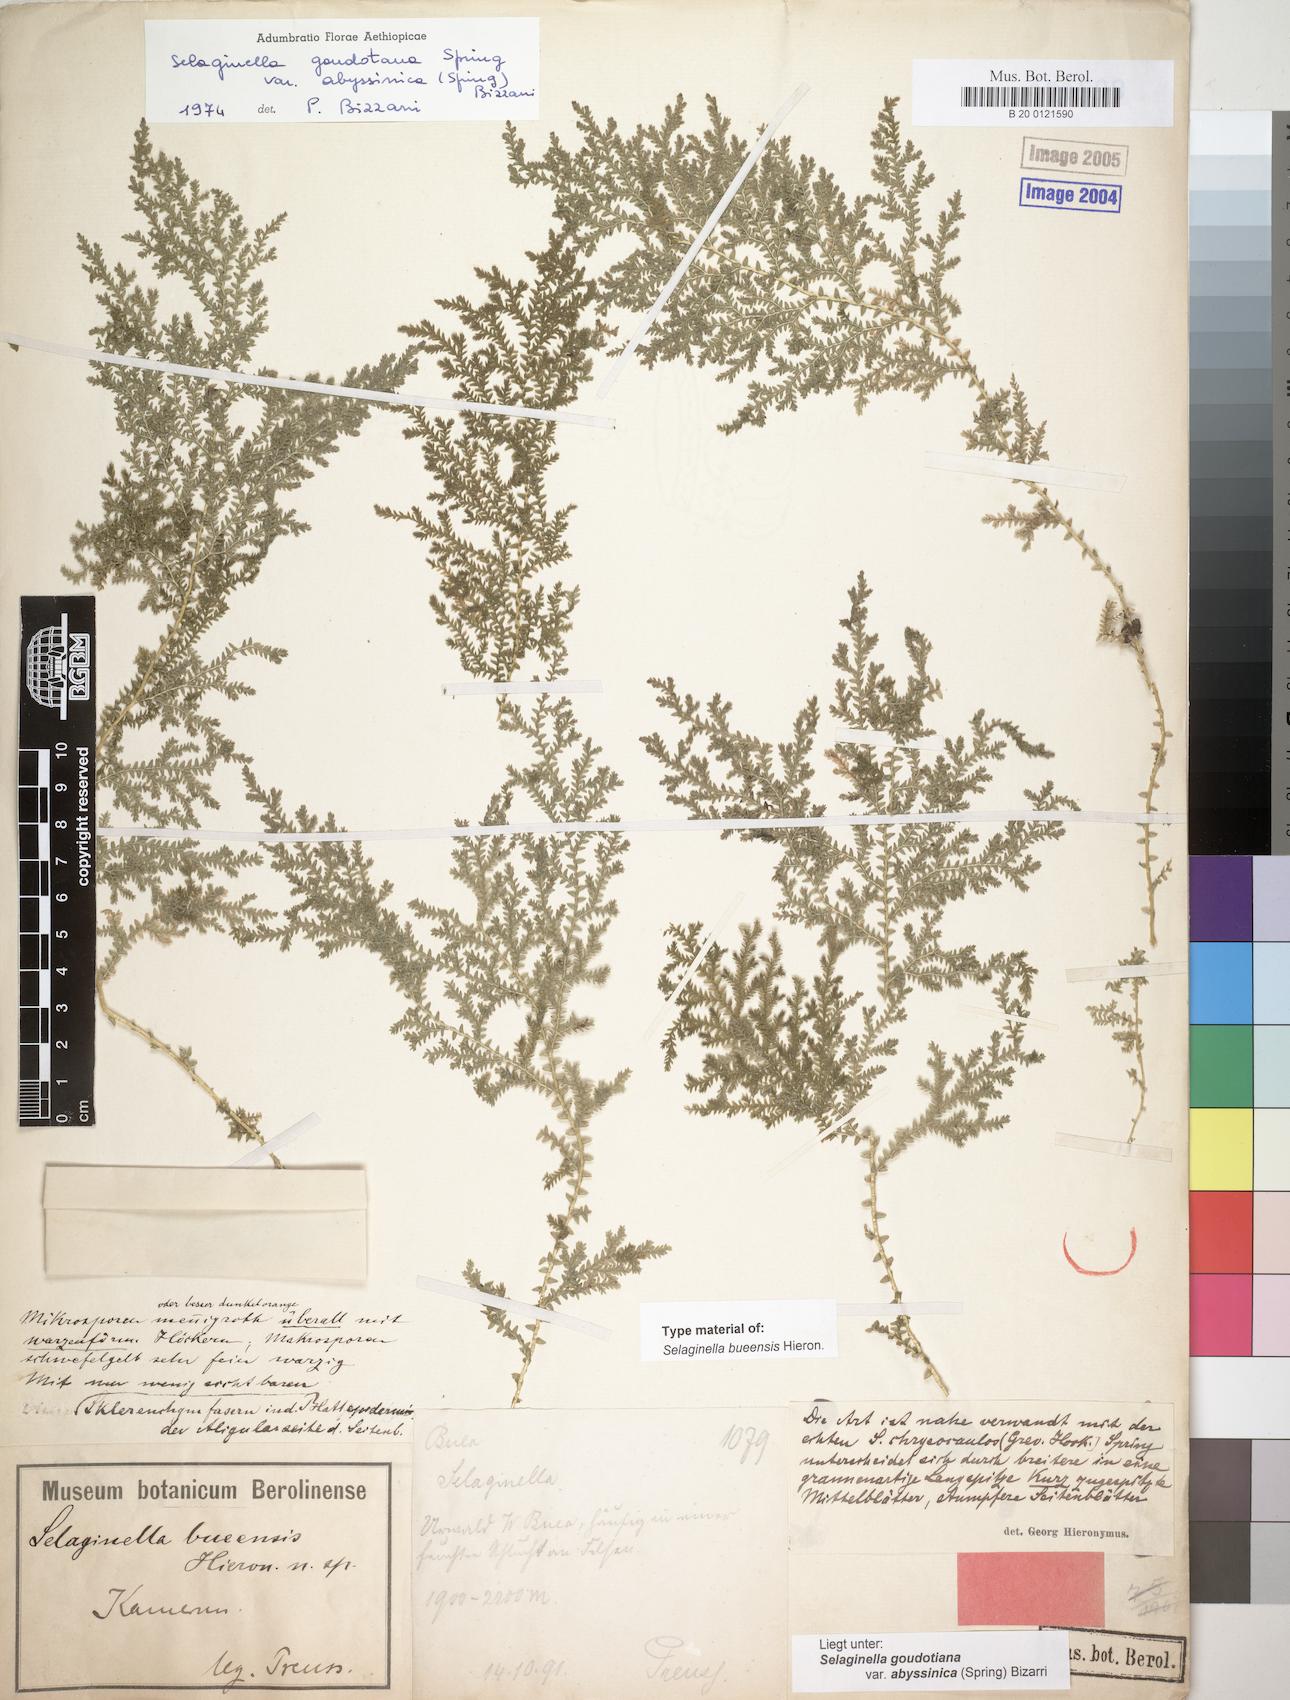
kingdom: Plantae
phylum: Tracheophyta
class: Lycopodiopsida
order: Selaginellales
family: Selaginellaceae
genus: Selaginella
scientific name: Selaginella goudotiana
